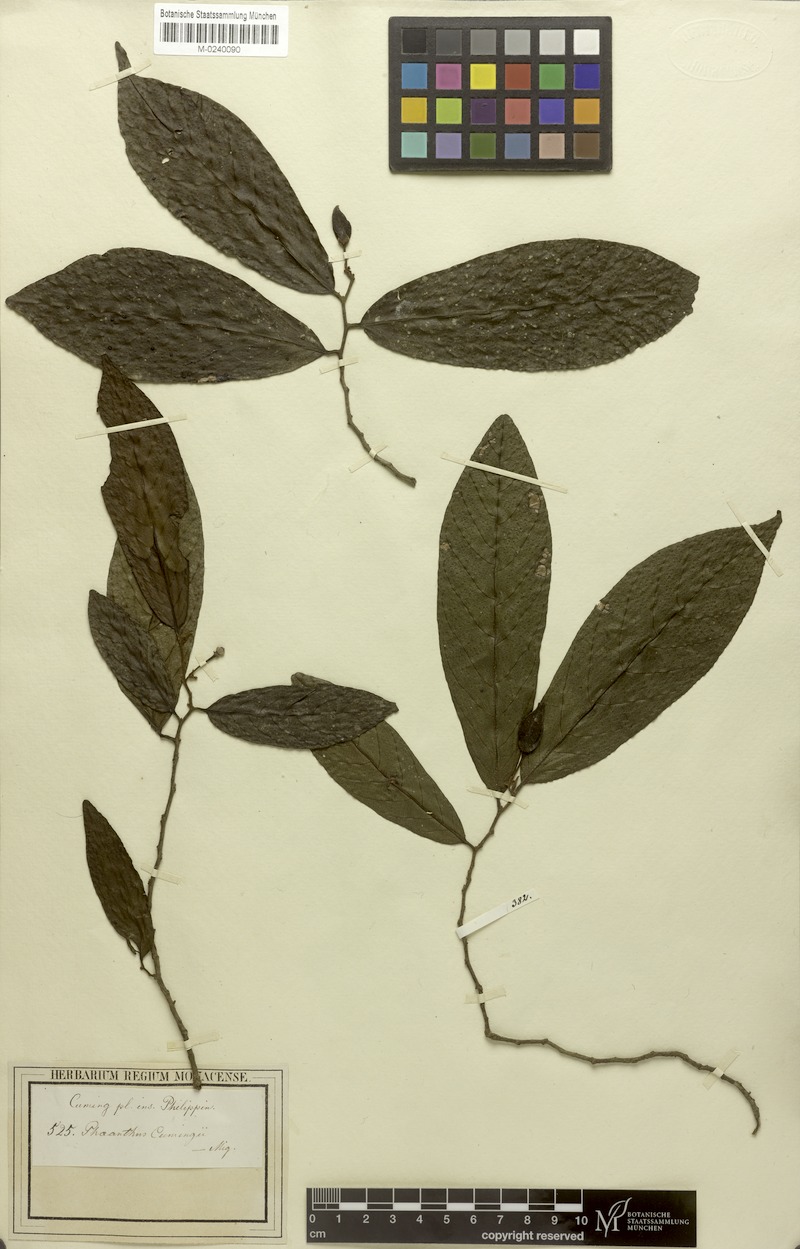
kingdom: Plantae
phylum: Tracheophyta
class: Magnoliopsida
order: Magnoliales
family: Annonaceae
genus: Phaeanthus
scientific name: Phaeanthus ophthalmicus
